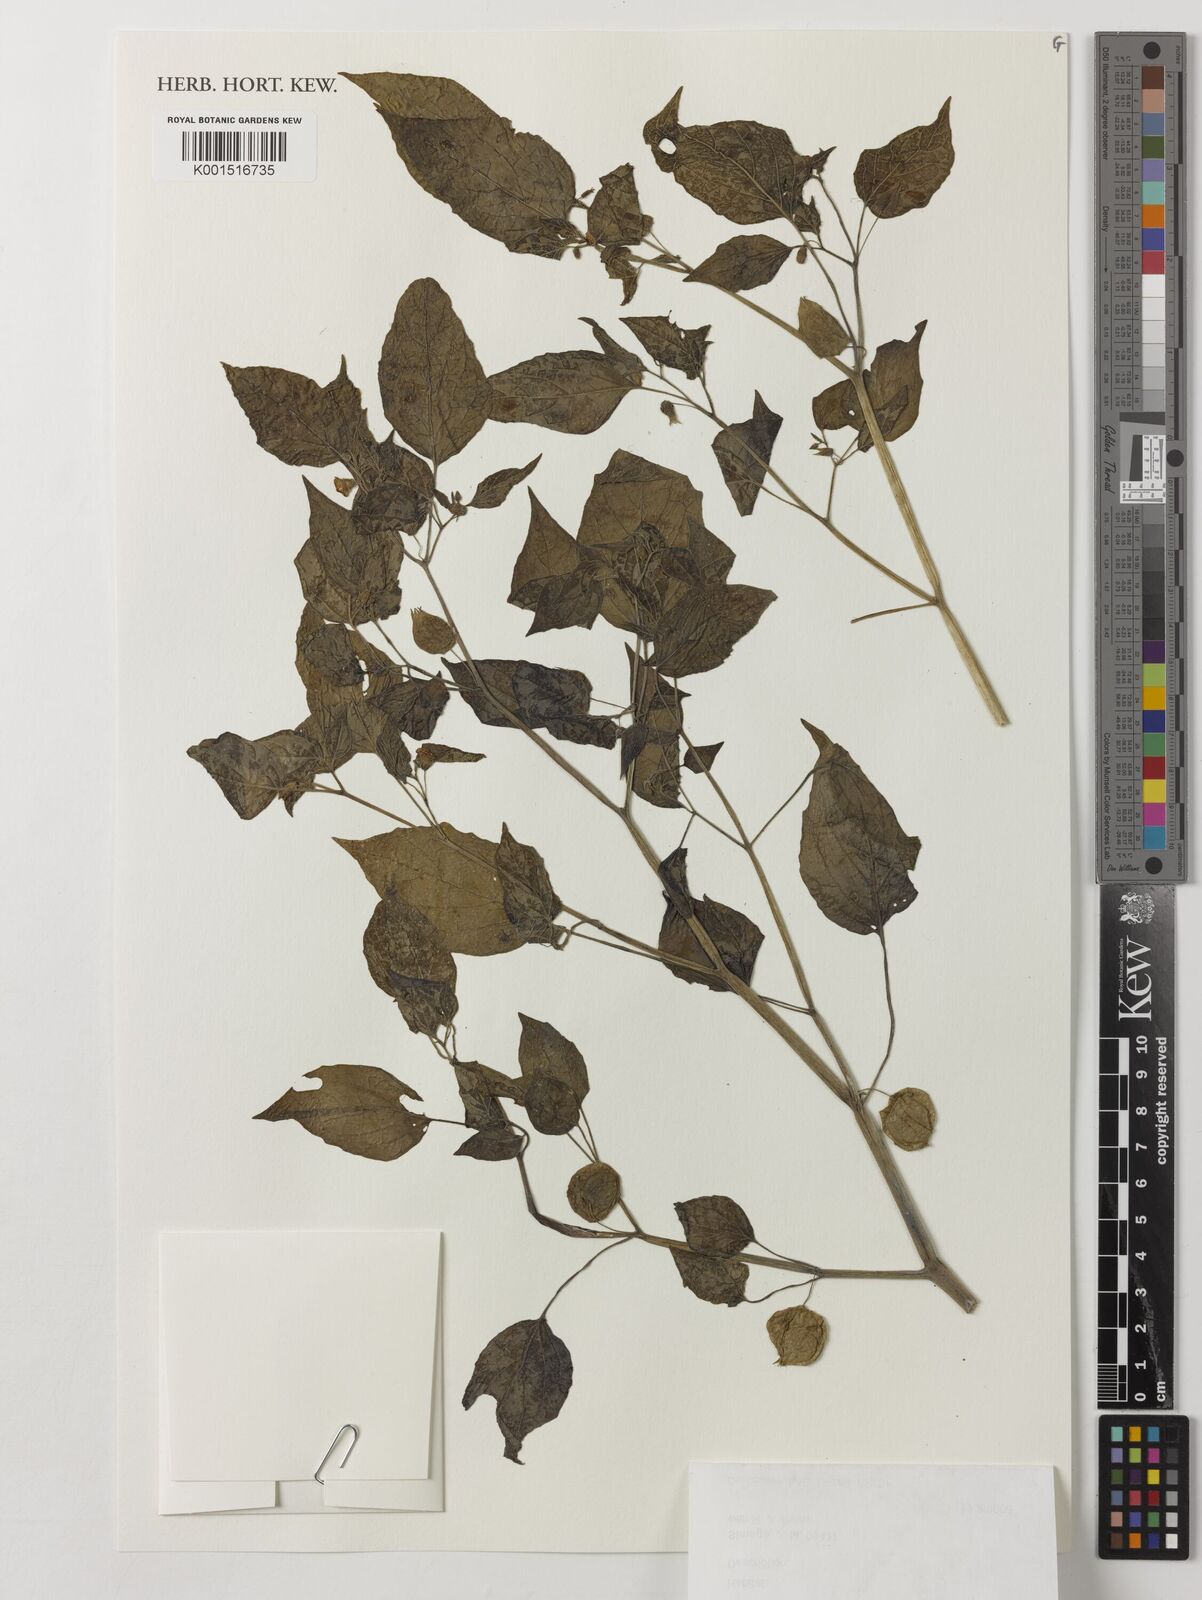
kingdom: Plantae
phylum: Tracheophyta
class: Magnoliopsida
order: Solanales
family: Solanaceae
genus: Physalis
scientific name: Physalis
